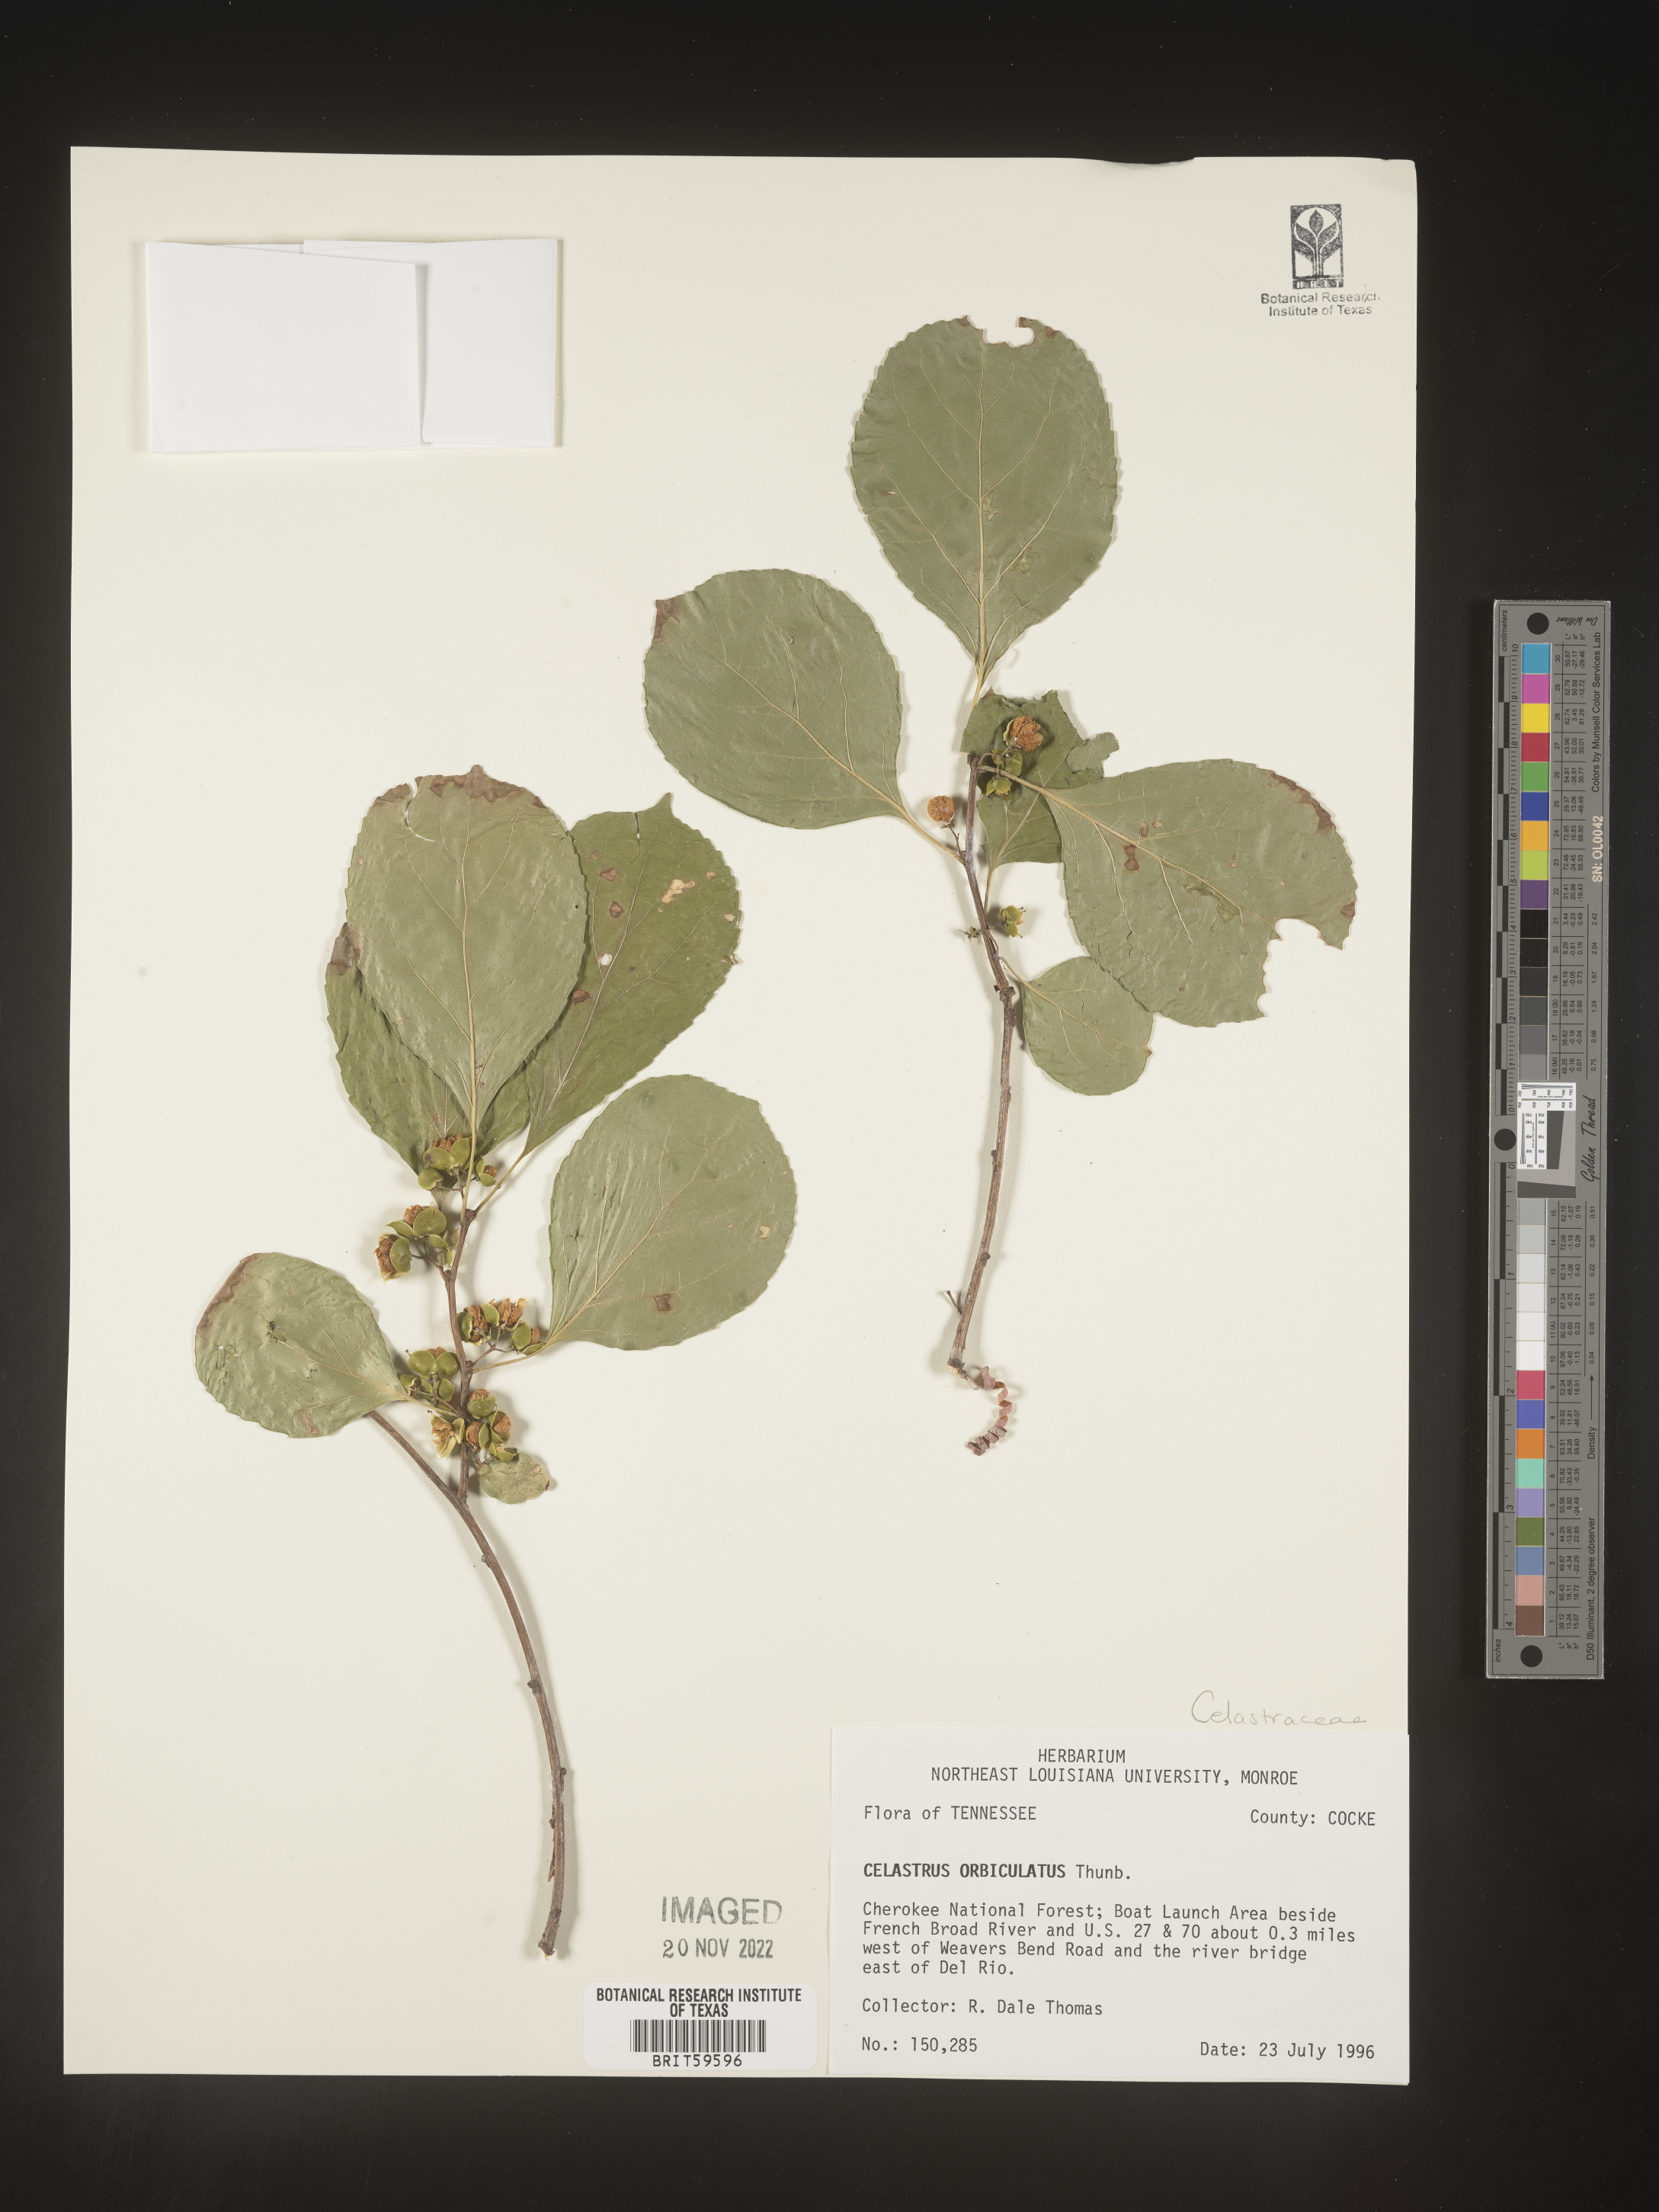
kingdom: Plantae
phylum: Tracheophyta
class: Magnoliopsida
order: Celastrales
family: Celastraceae
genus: Celastrus
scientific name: Celastrus
